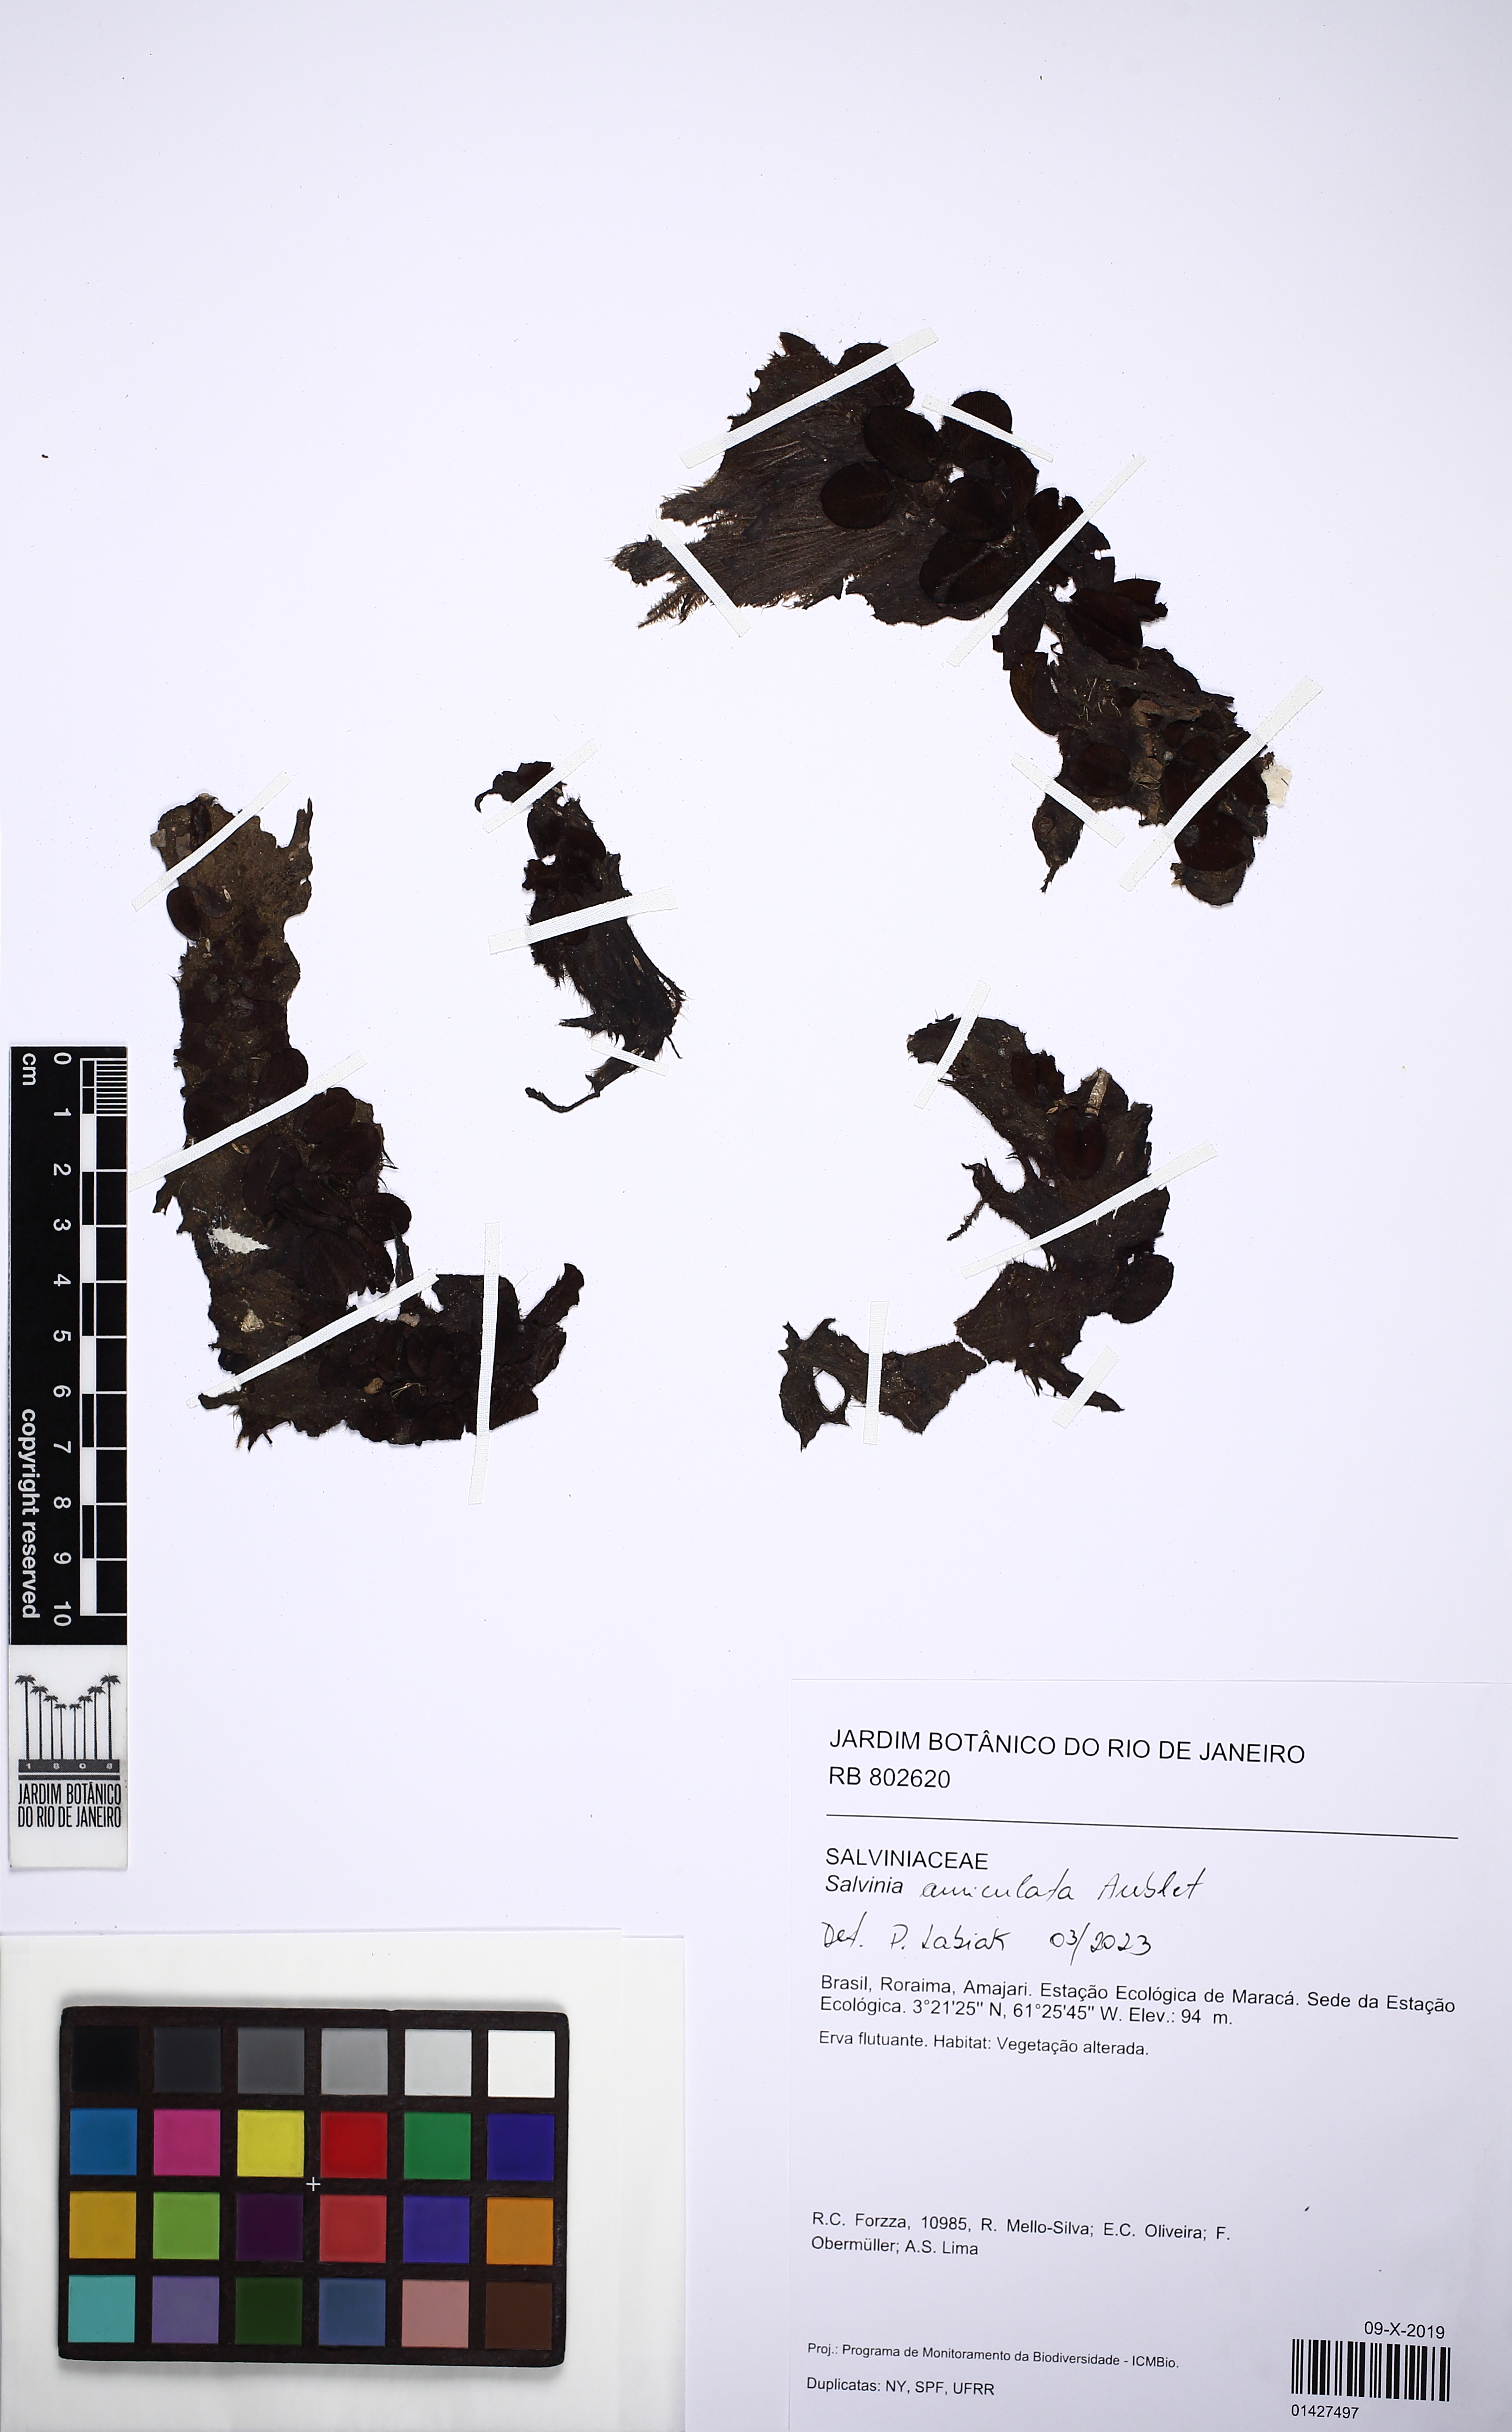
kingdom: Plantae
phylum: Tracheophyta
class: Polypodiopsida
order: Salviniales
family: Salviniaceae
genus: Salvinia
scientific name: Salvinia auriculata
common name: African payal
